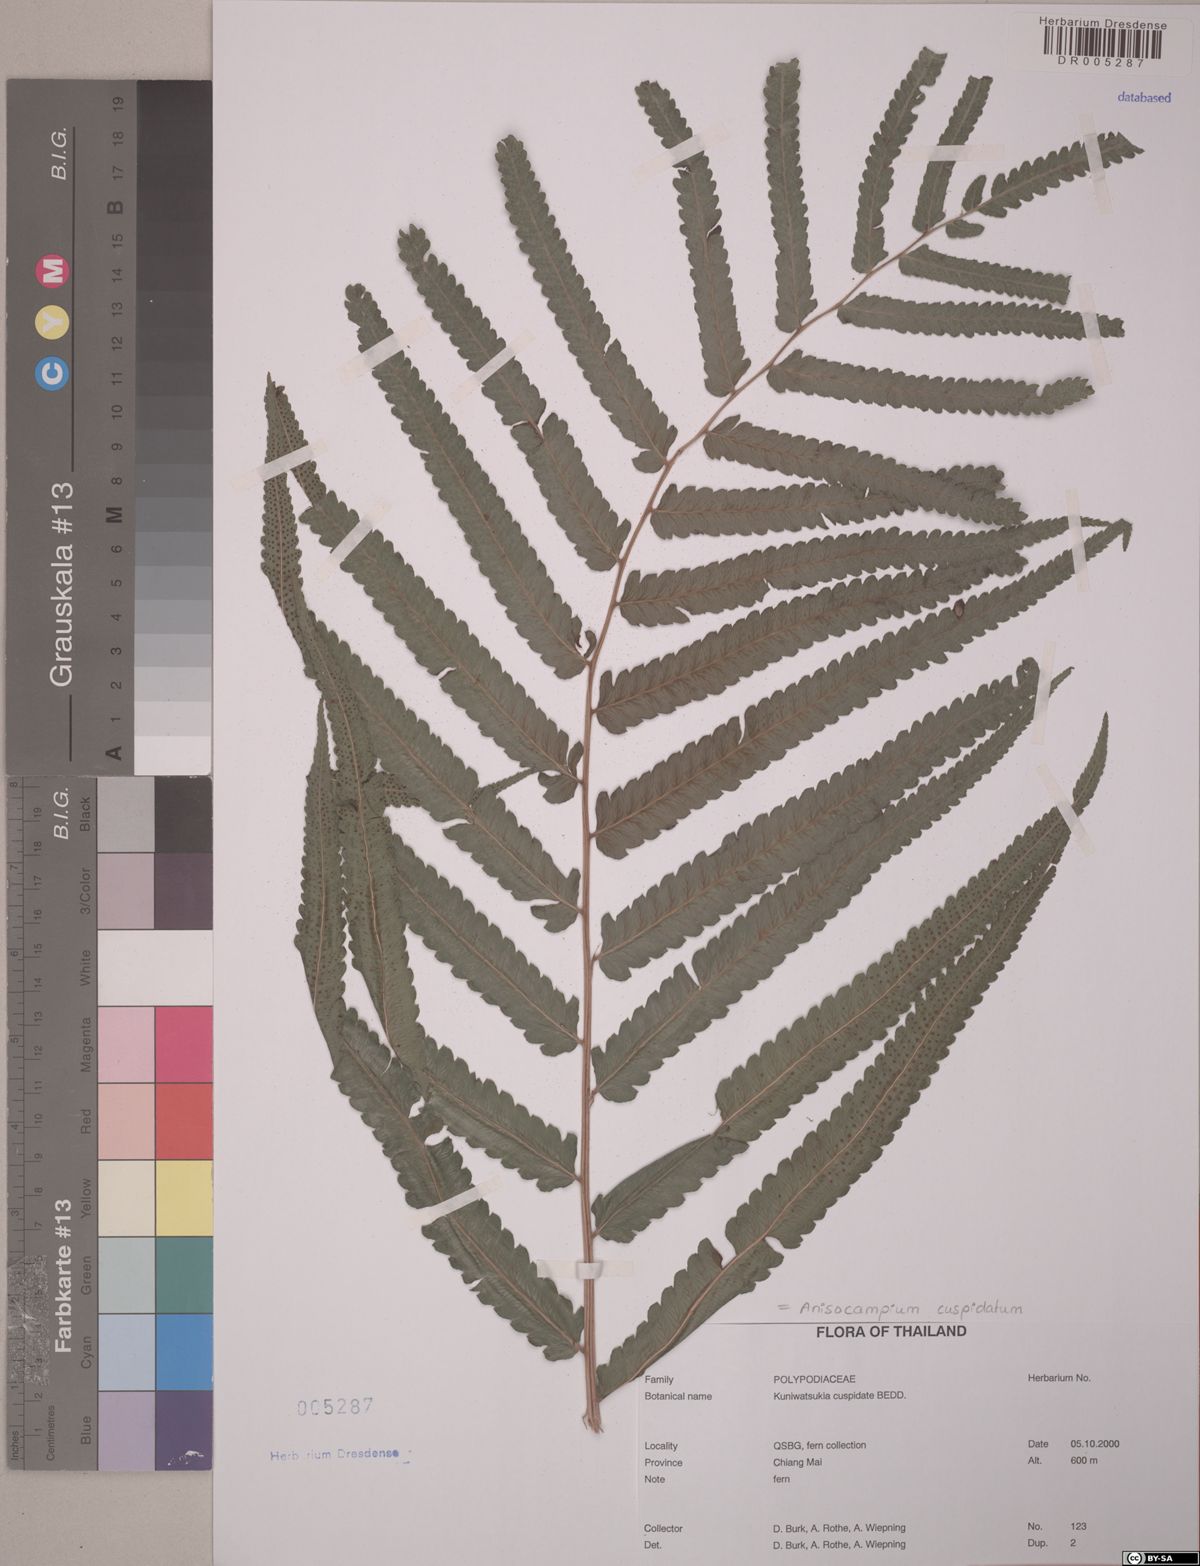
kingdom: Plantae
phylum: Tracheophyta
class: Polypodiopsida
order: Polypodiales
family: Athyriaceae
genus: Anisocampium
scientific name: Anisocampium cuspidatum
